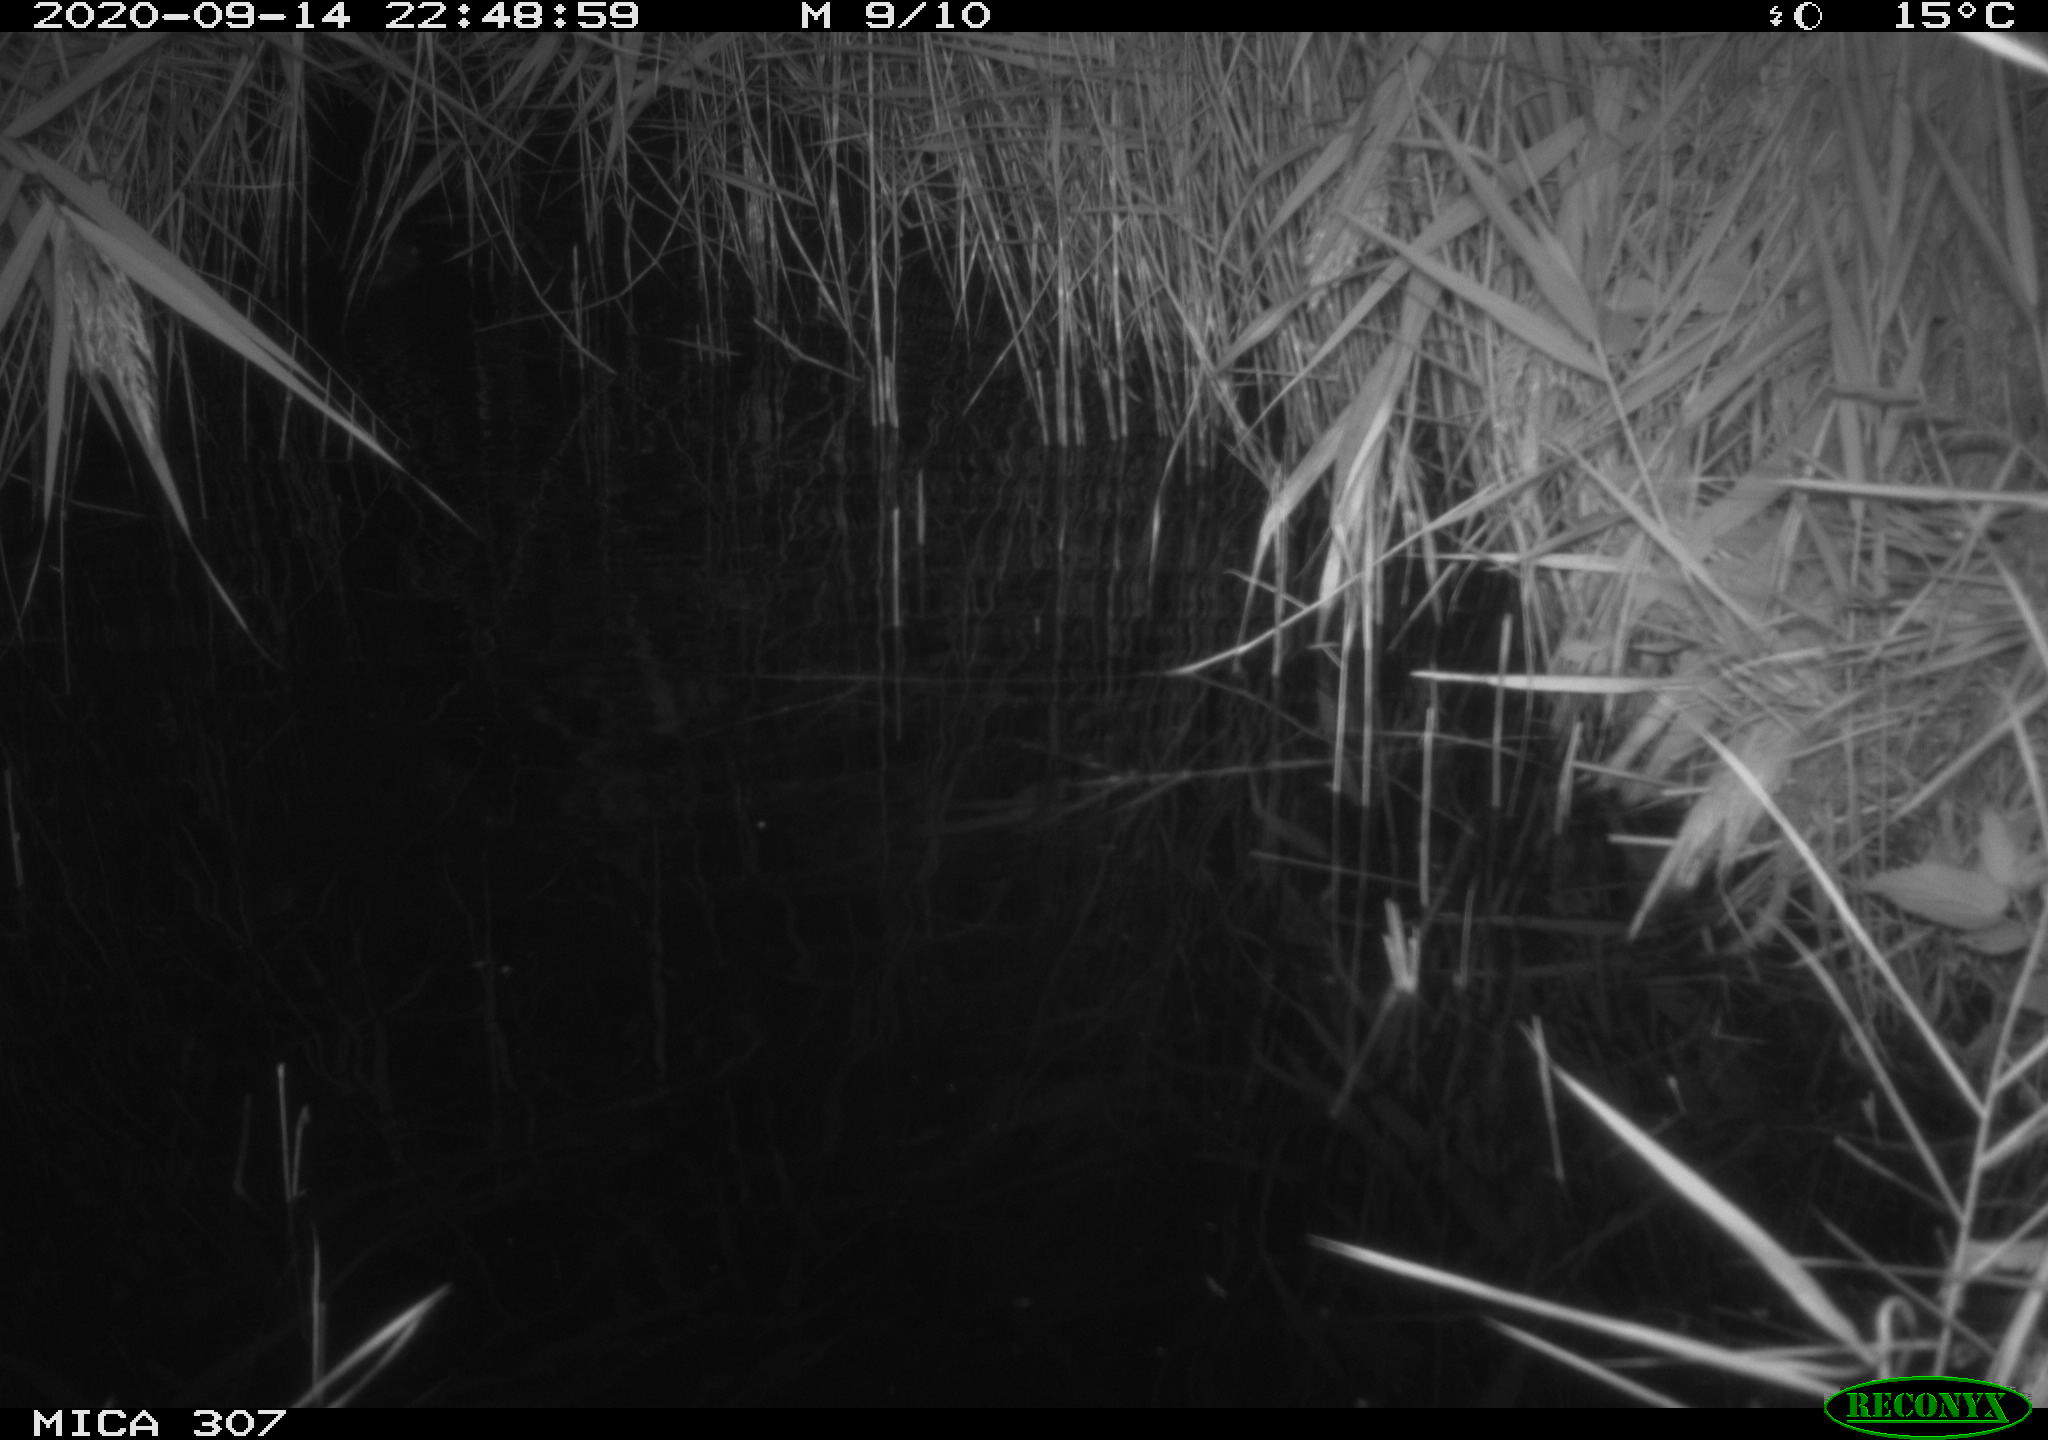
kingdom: Animalia
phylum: Chordata
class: Mammalia
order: Rodentia
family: Cricetidae
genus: Ondatra
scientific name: Ondatra zibethicus
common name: Muskrat
